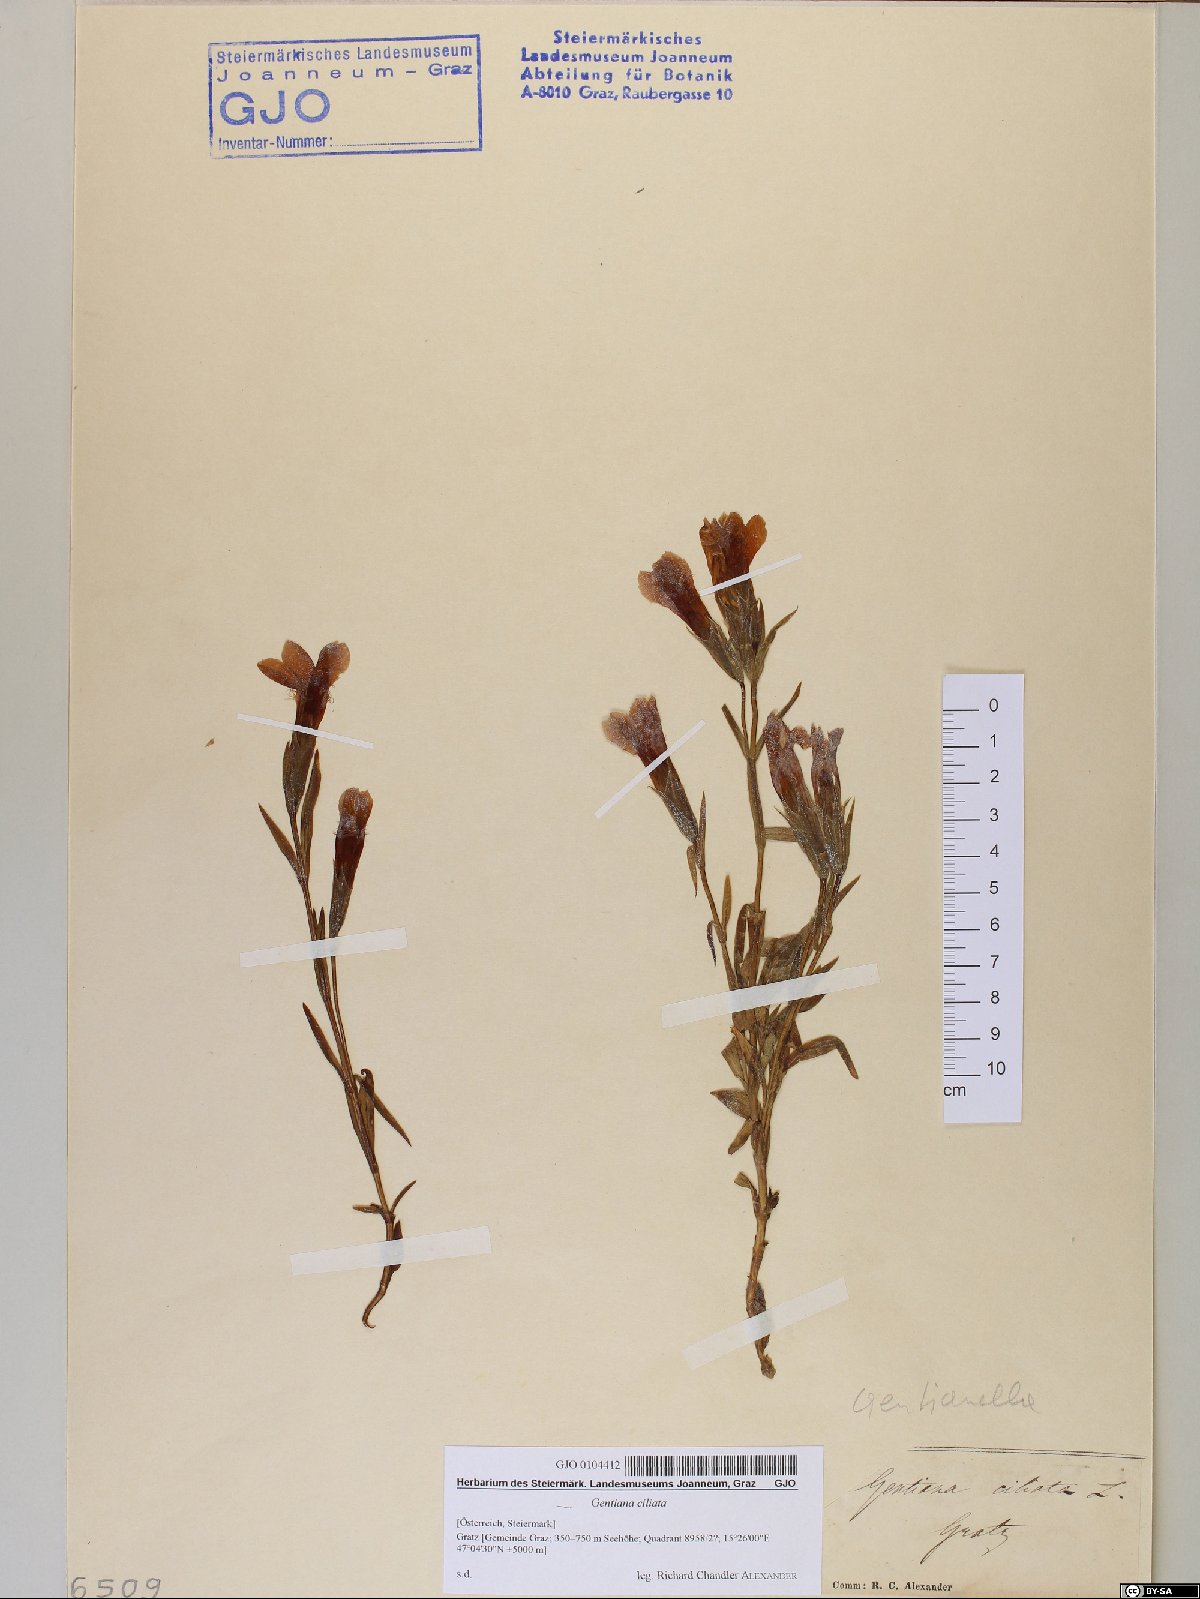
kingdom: Plantae
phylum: Tracheophyta
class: Magnoliopsida
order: Gentianales
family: Gentianaceae
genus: Gentianopsis
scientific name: Gentianopsis ciliata
